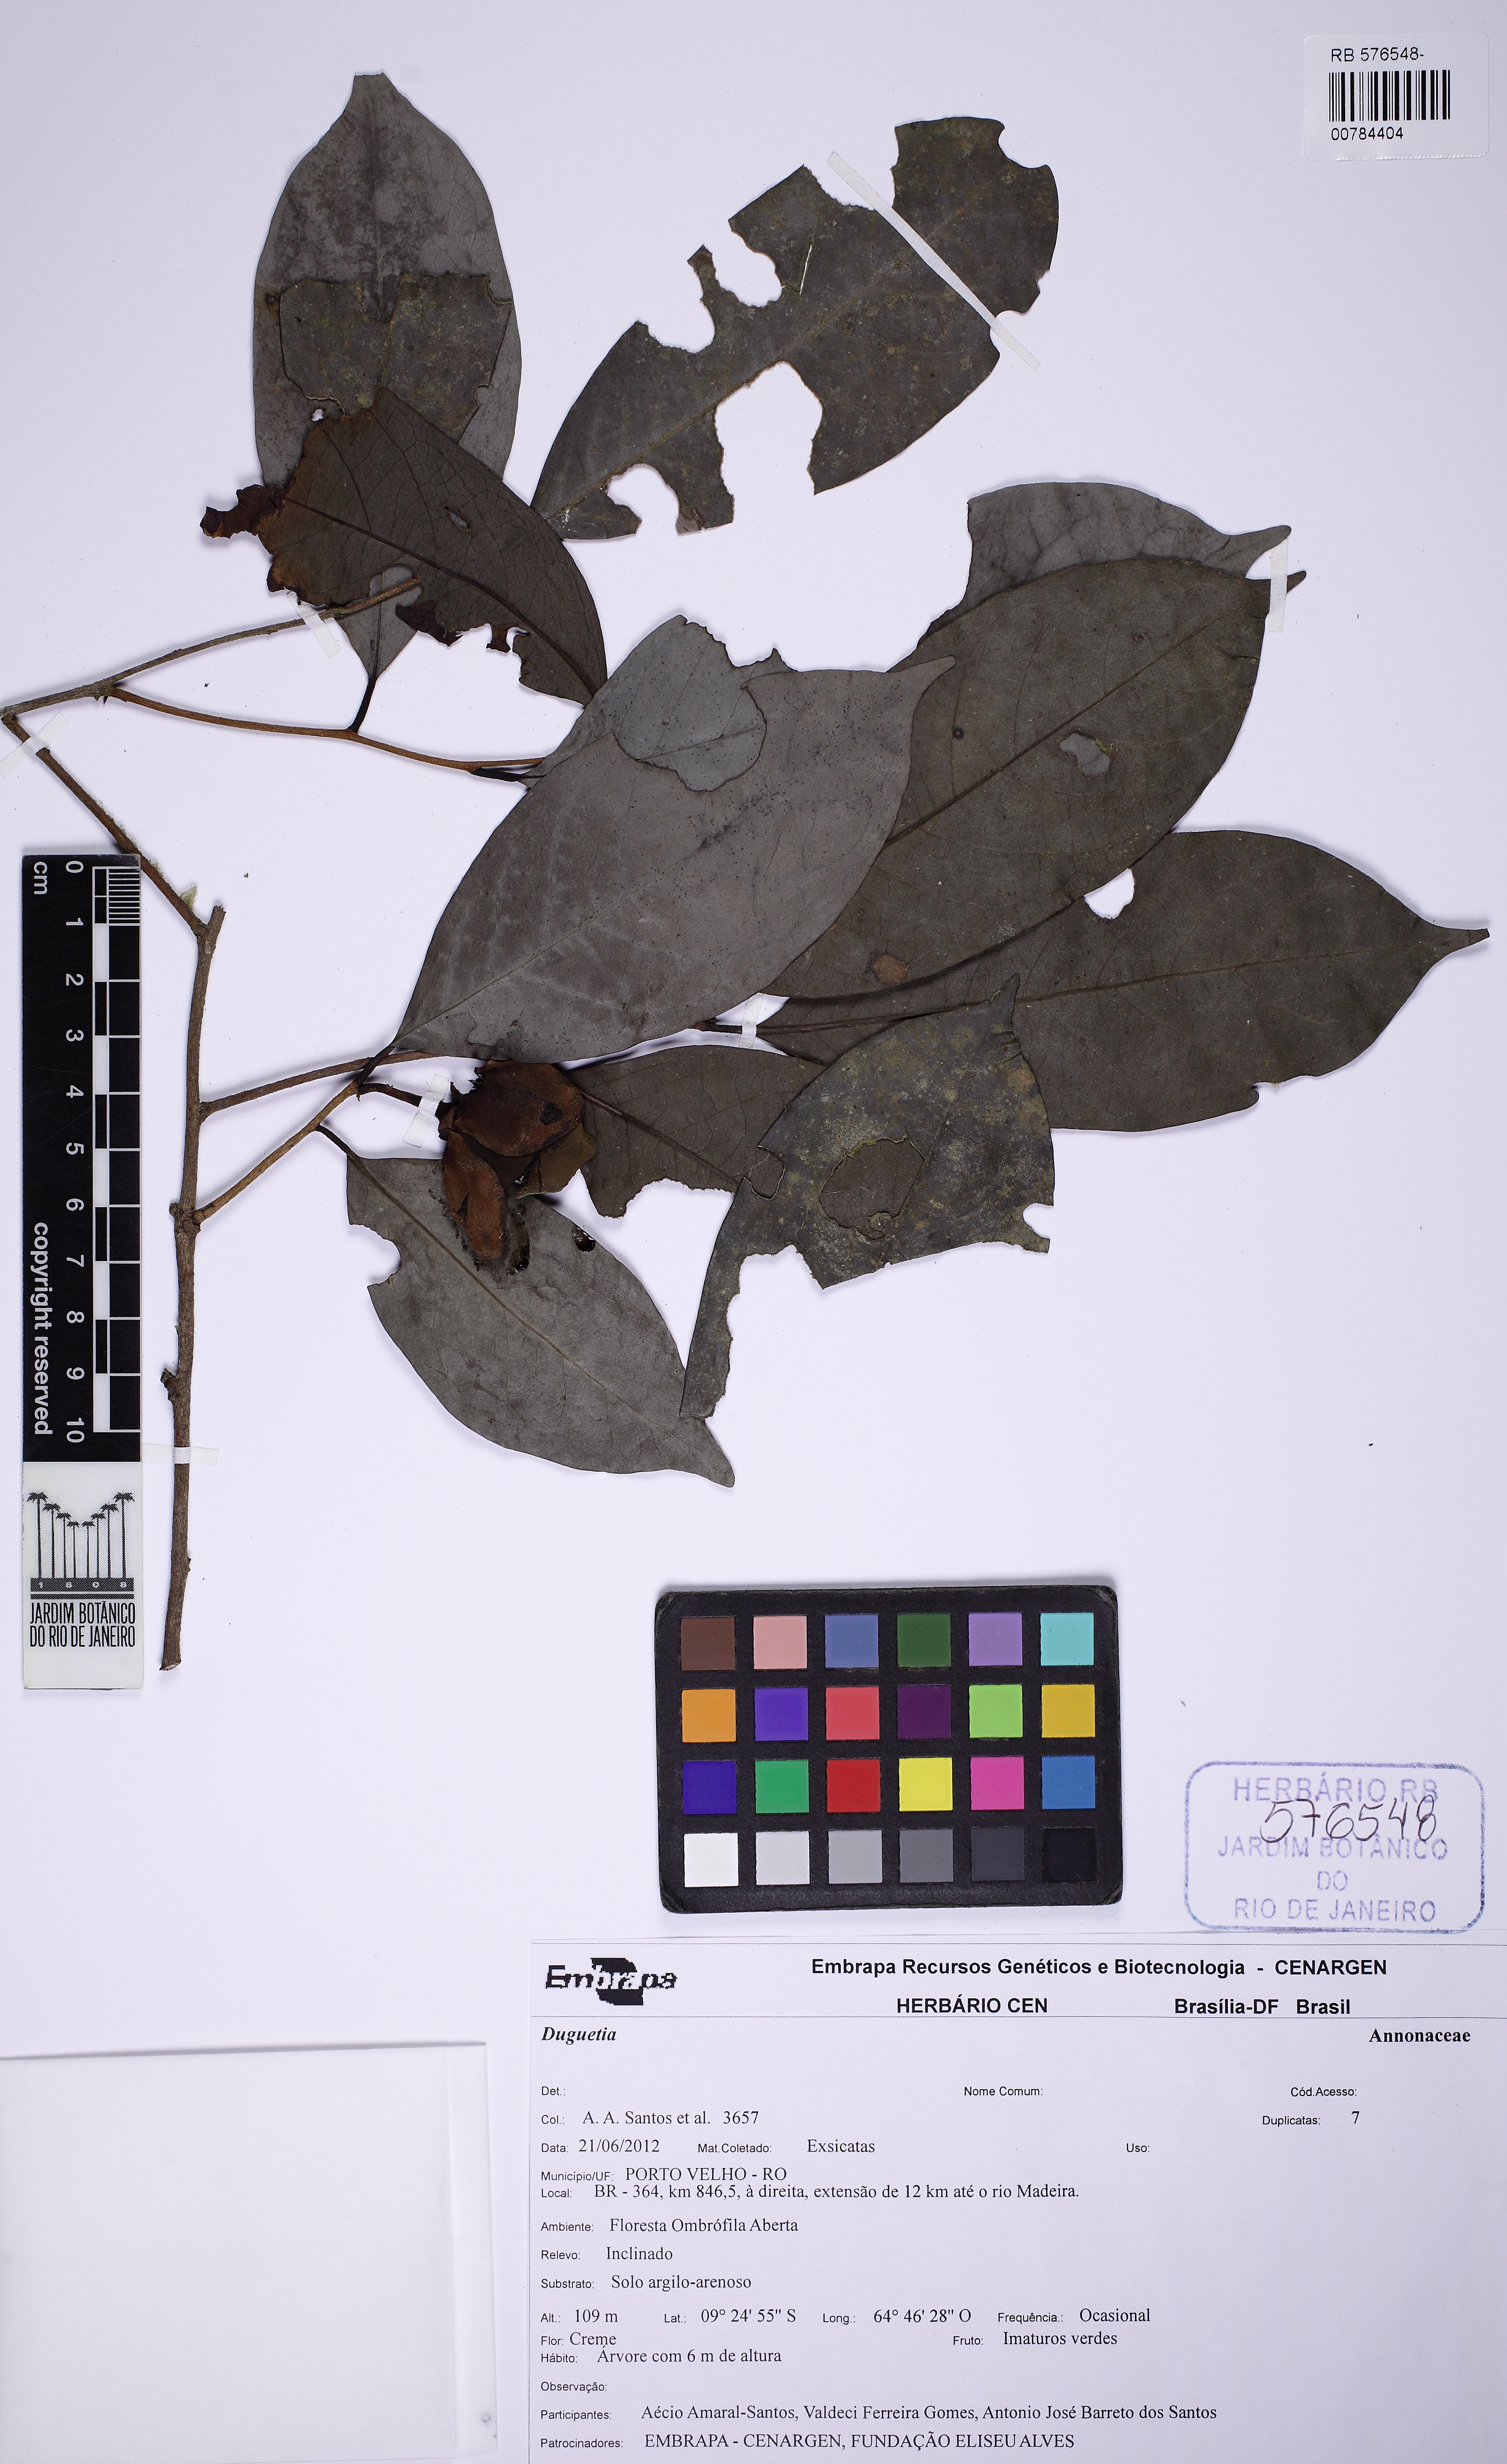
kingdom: Plantae
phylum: Tracheophyta
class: Magnoliopsida
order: Magnoliales
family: Annonaceae
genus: Duguetia
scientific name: Duguetia
